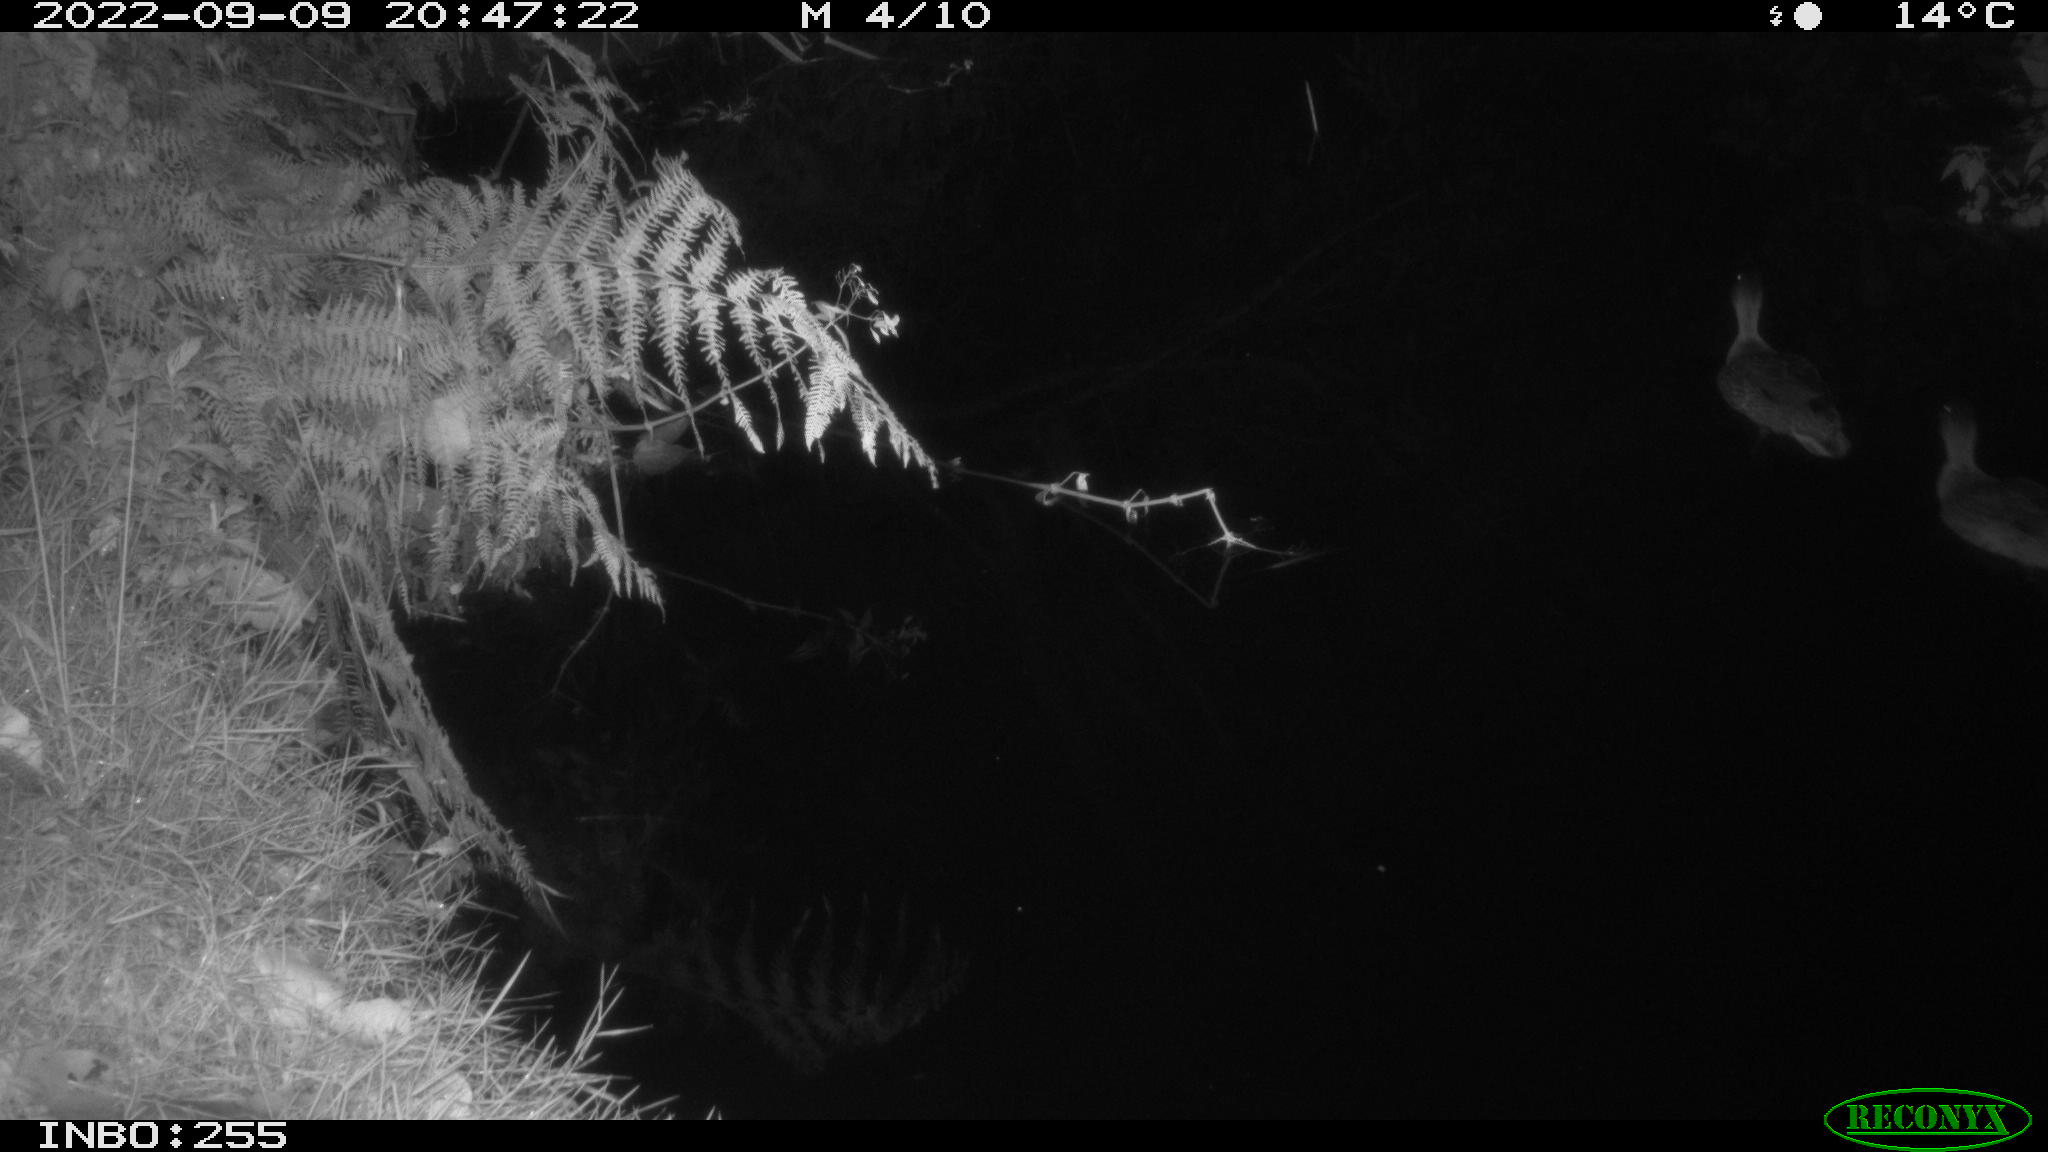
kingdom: Animalia
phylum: Chordata
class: Aves
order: Anseriformes
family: Anatidae
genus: Anas
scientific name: Anas platyrhynchos
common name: Mallard
